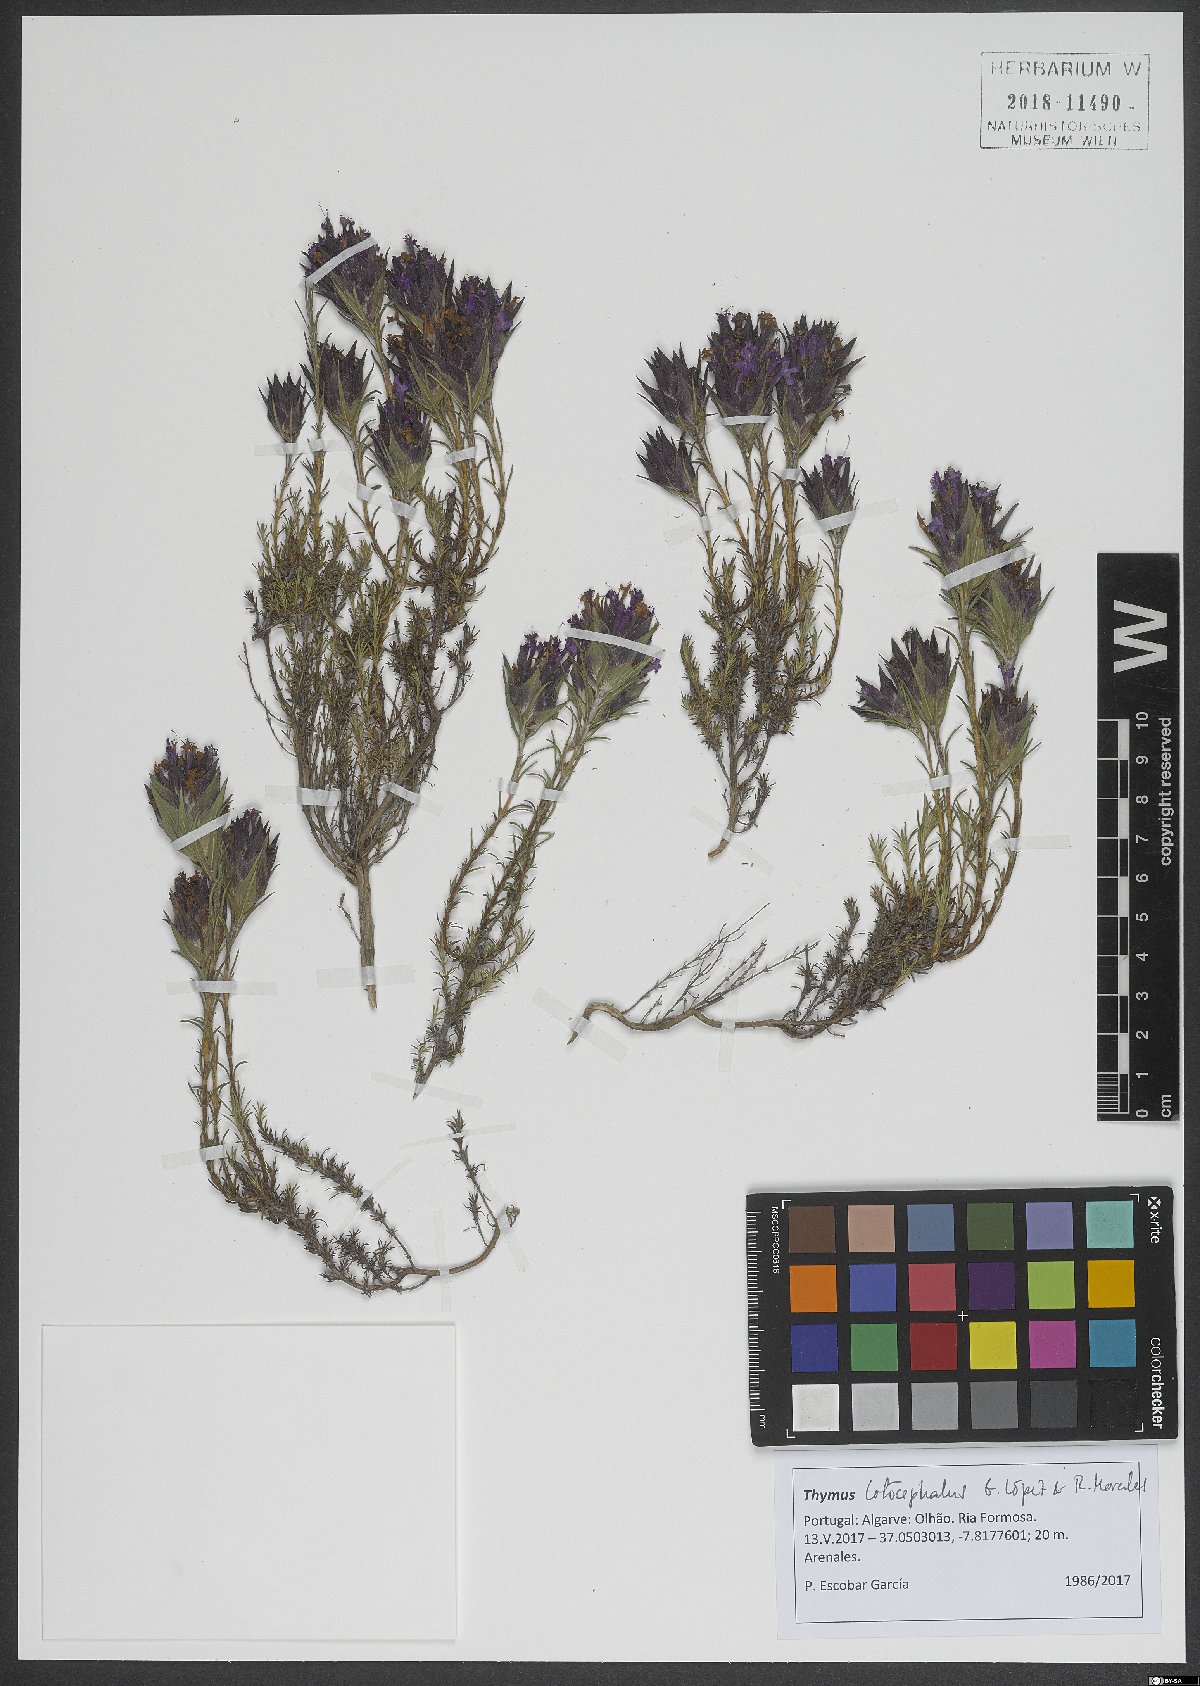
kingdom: Plantae
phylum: Tracheophyta
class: Magnoliopsida
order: Lamiales
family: Lamiaceae
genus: Thymus
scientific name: Thymus lotocephalus
